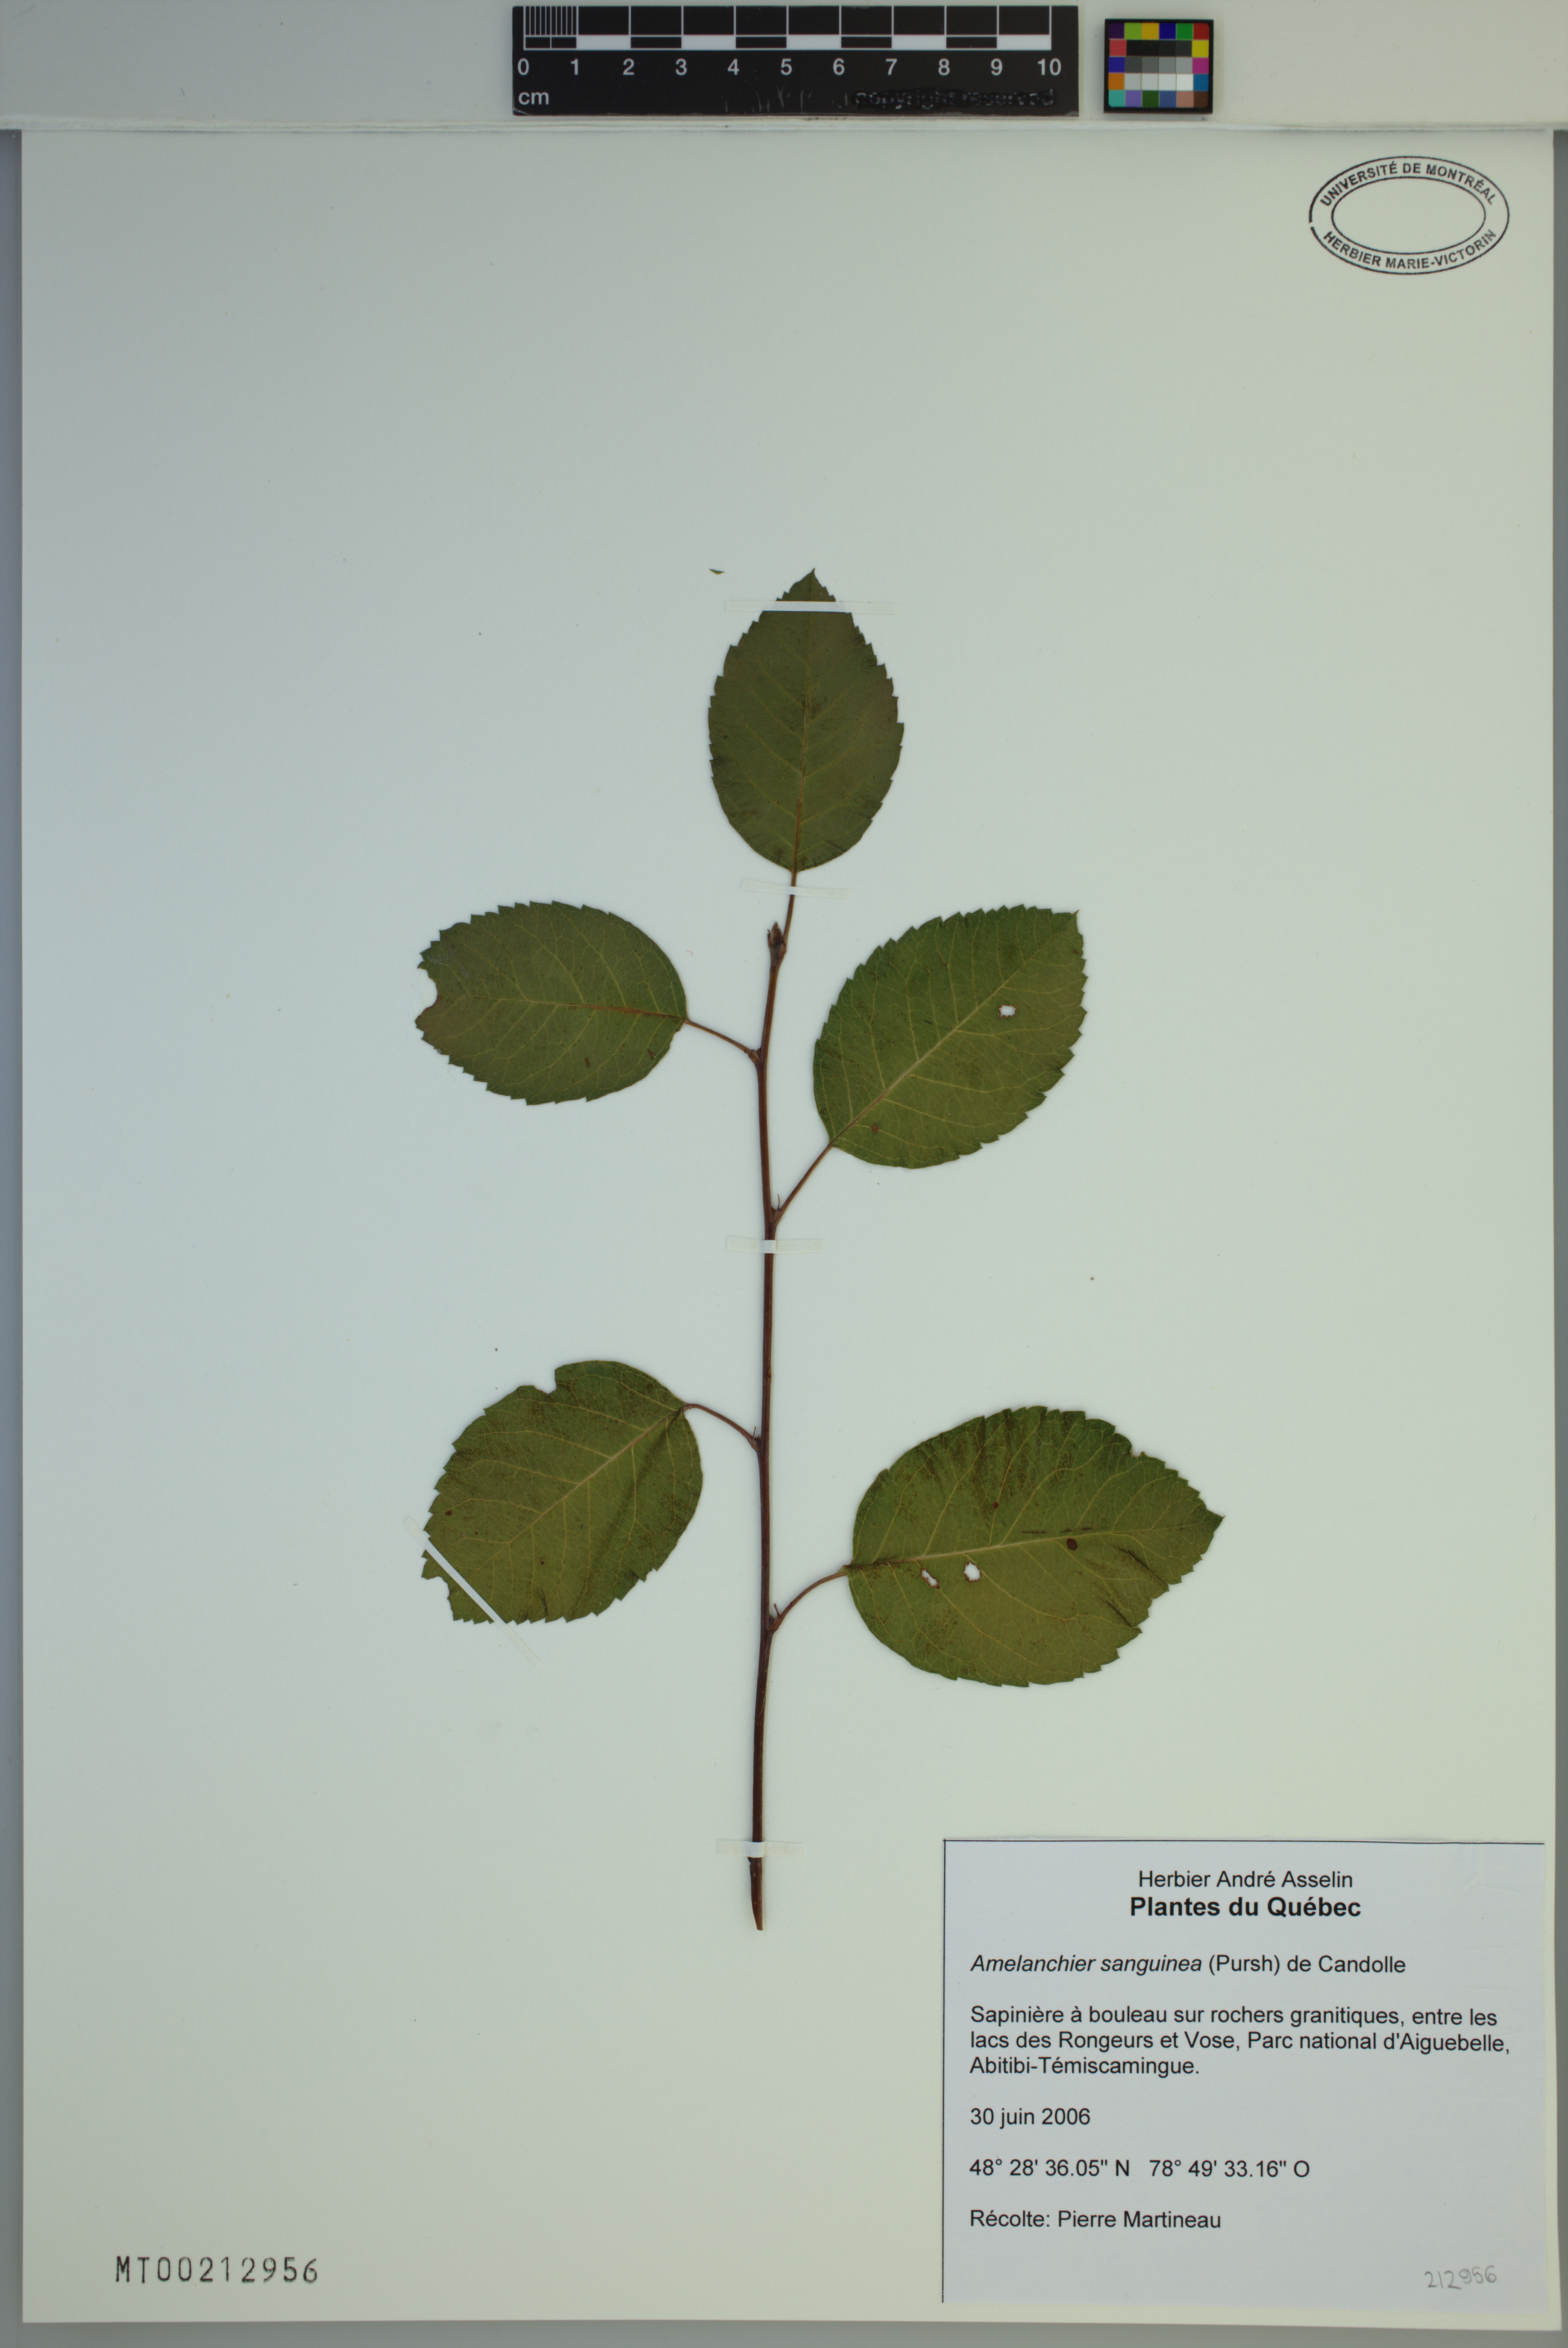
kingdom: Plantae
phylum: Tracheophyta
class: Magnoliopsida
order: Rosales
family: Rosaceae
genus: Amelanchier
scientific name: Amelanchier sanguinea
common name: Huron serviceberry
